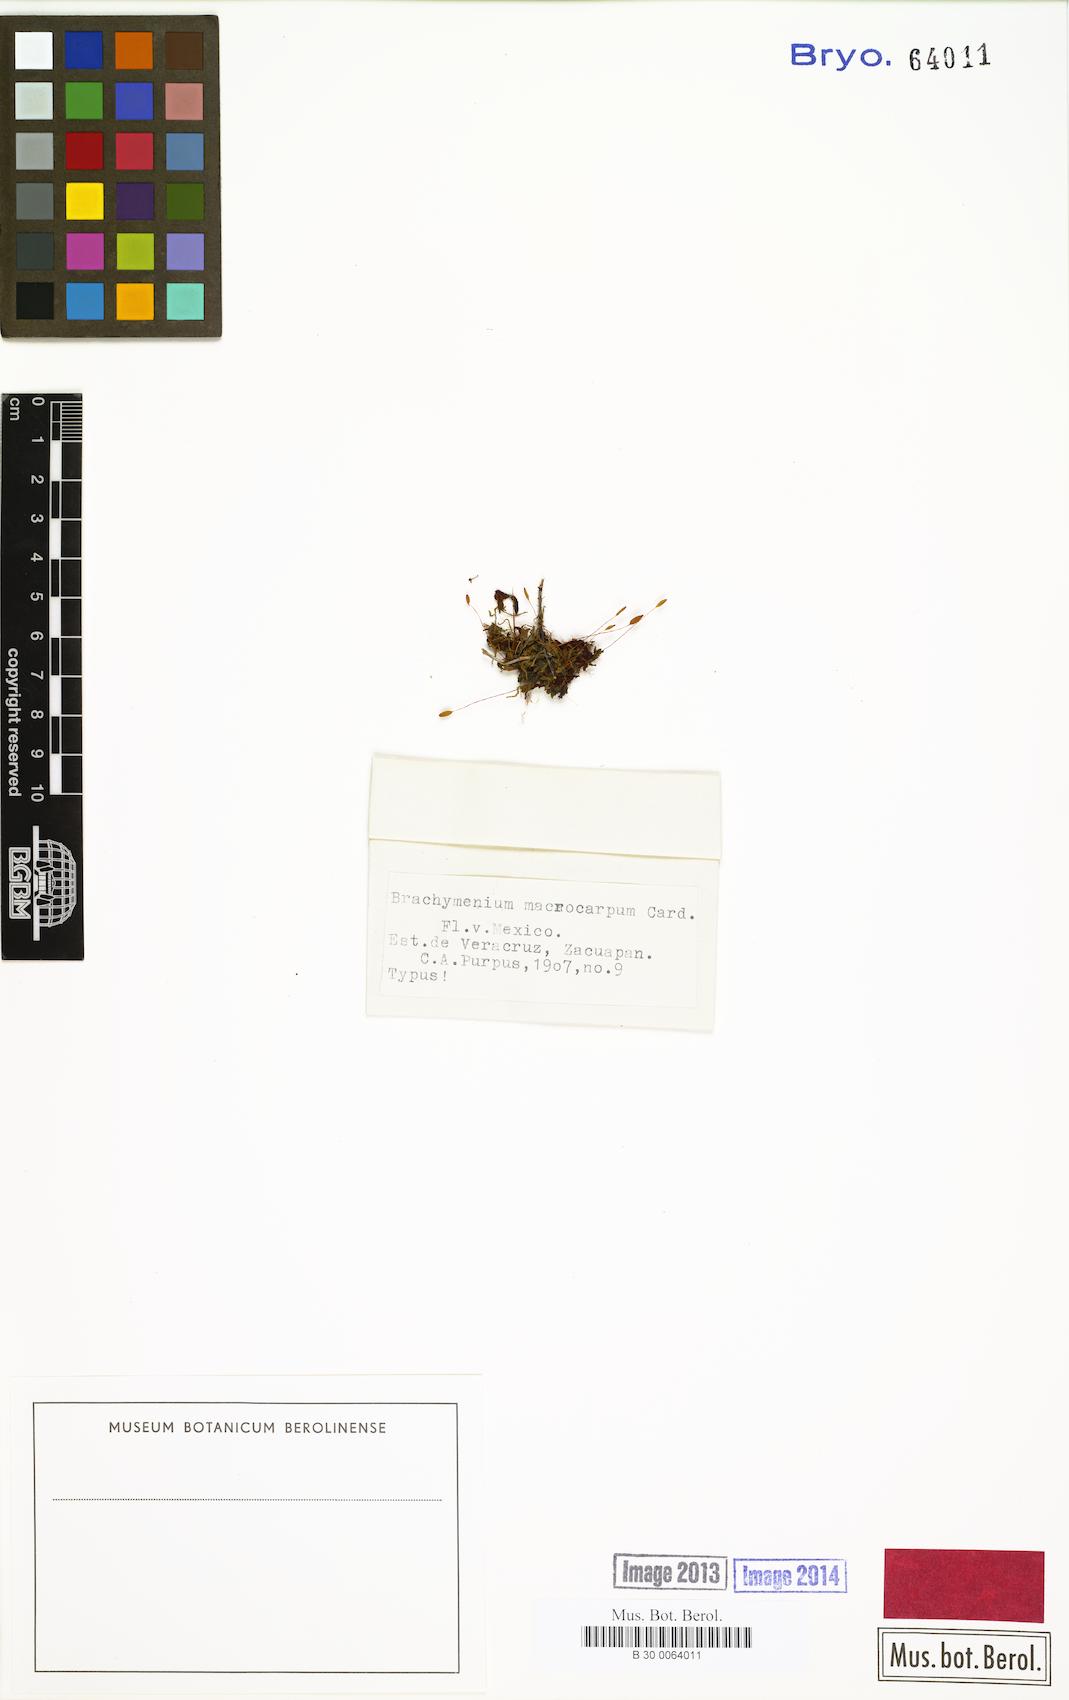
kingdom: Plantae
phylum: Bryophyta
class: Bryopsida
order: Bryales
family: Bryaceae
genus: Brachymenium
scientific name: Brachymenium klotzschii
